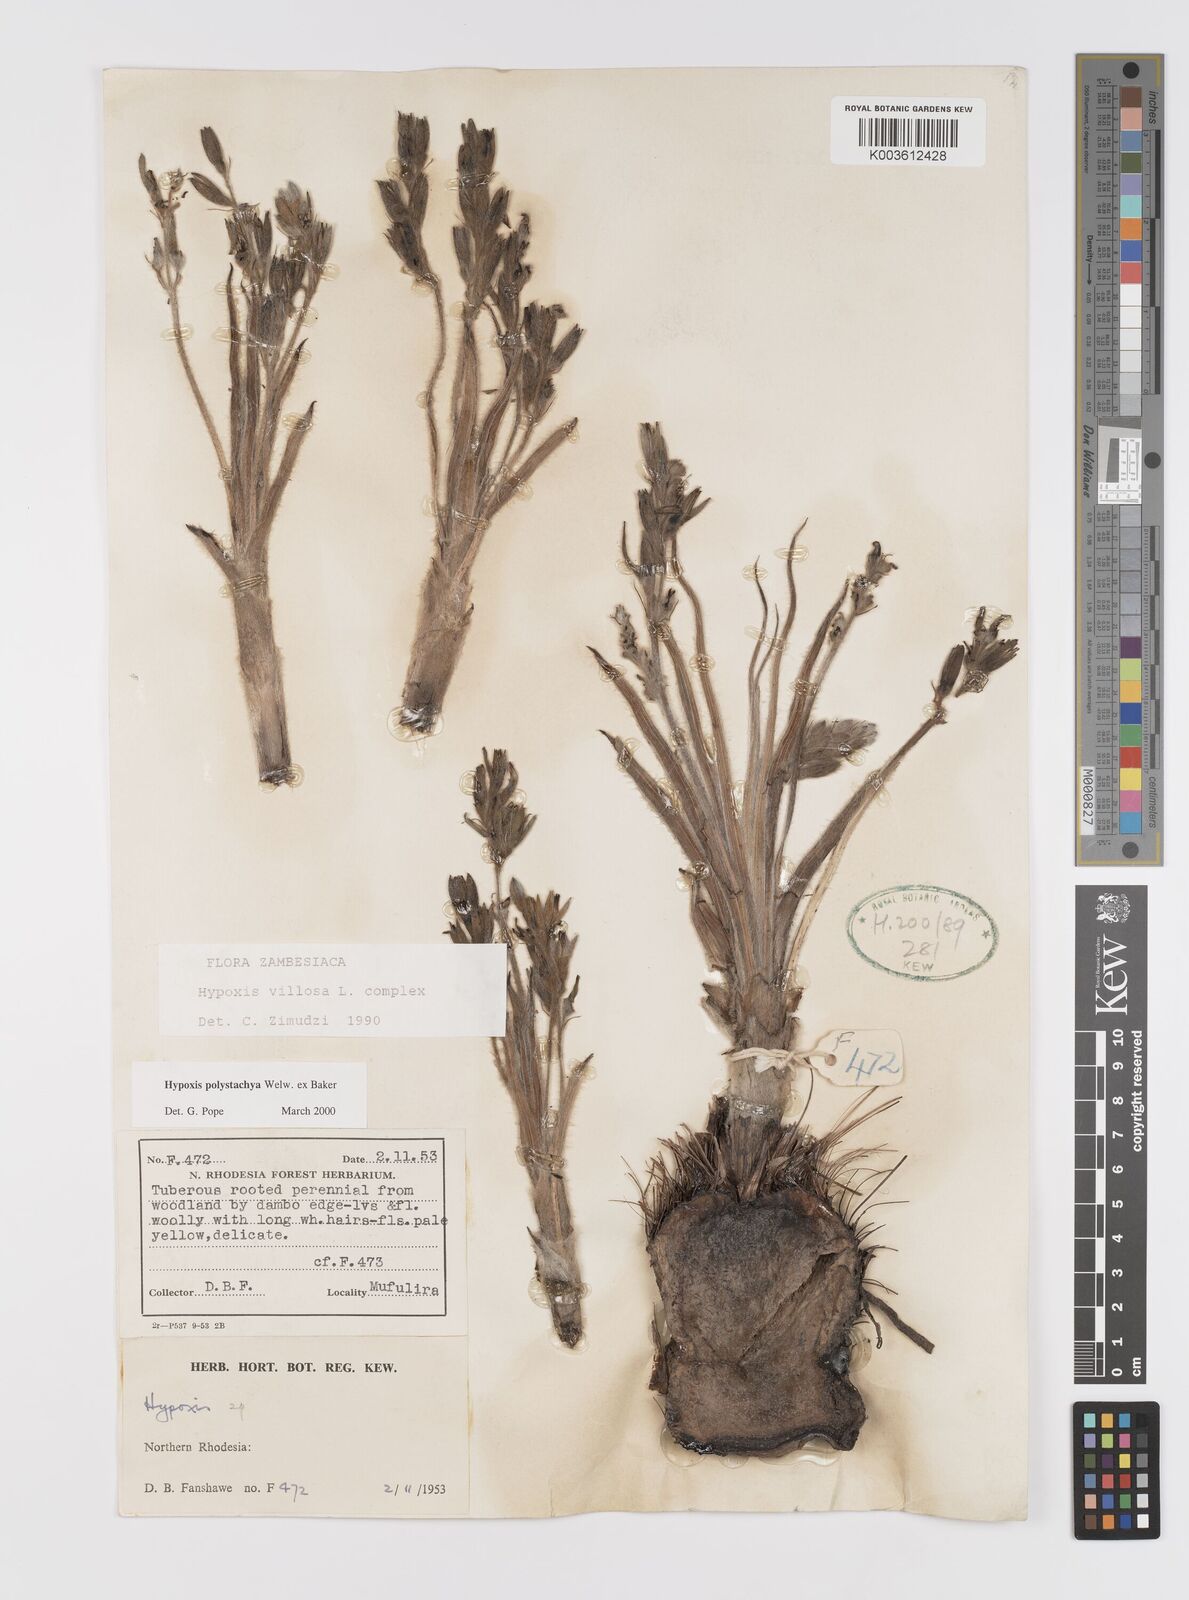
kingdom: Plantae
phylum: Tracheophyta
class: Liliopsida
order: Asparagales
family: Hypoxidaceae
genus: Hypoxis
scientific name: Hypoxis polystachya
